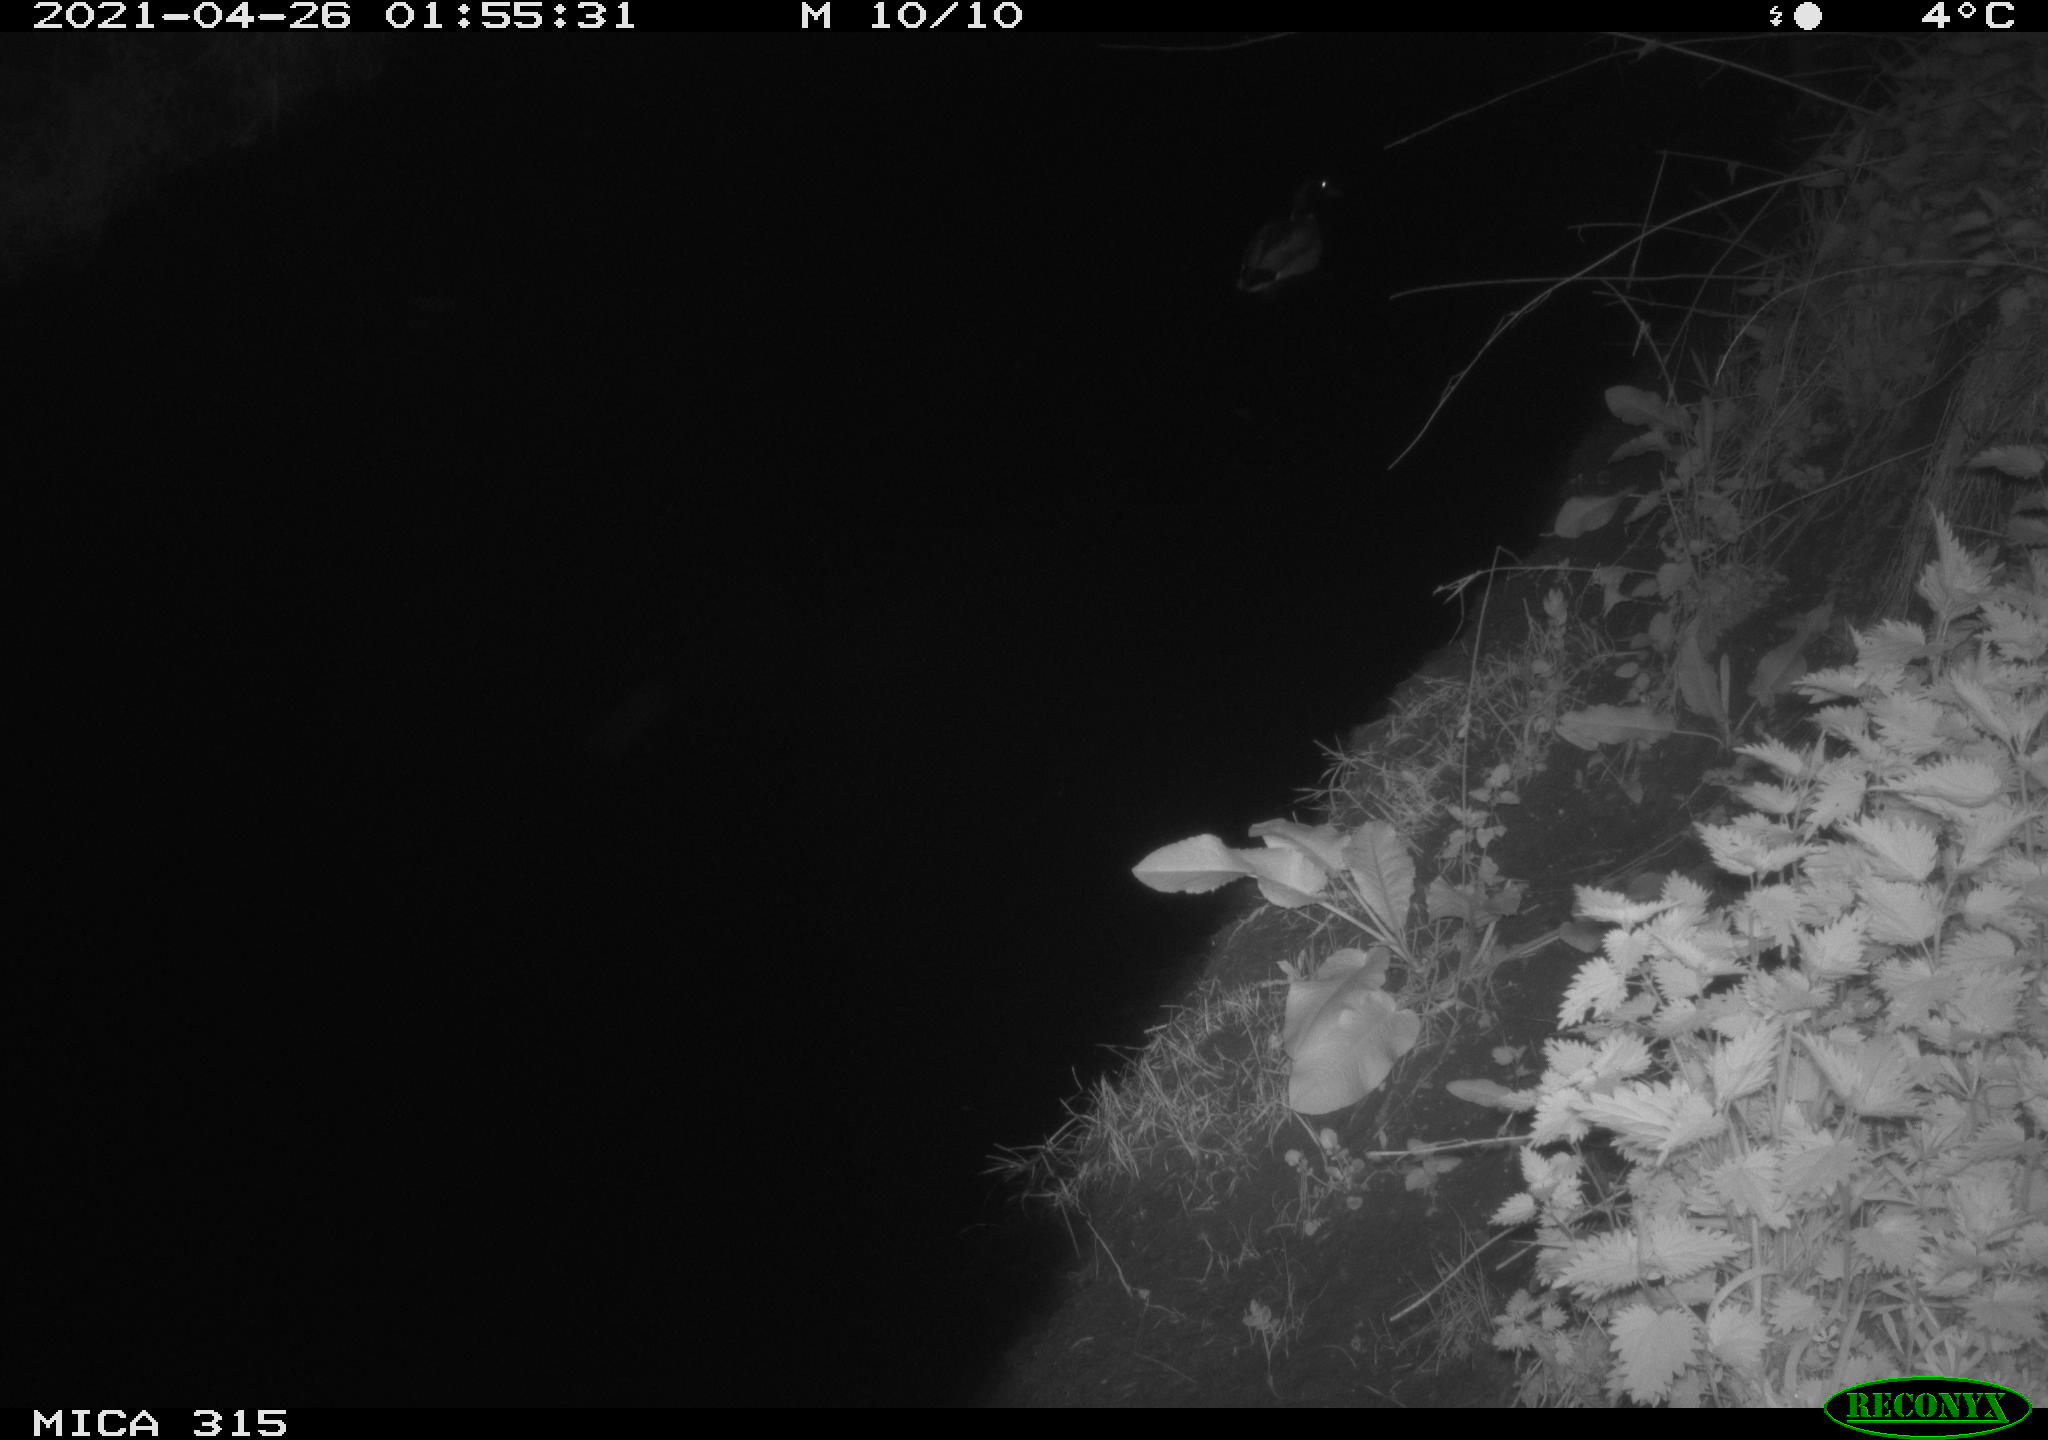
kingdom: Animalia
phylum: Chordata
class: Aves
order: Anseriformes
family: Anatidae
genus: Anas
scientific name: Anas
